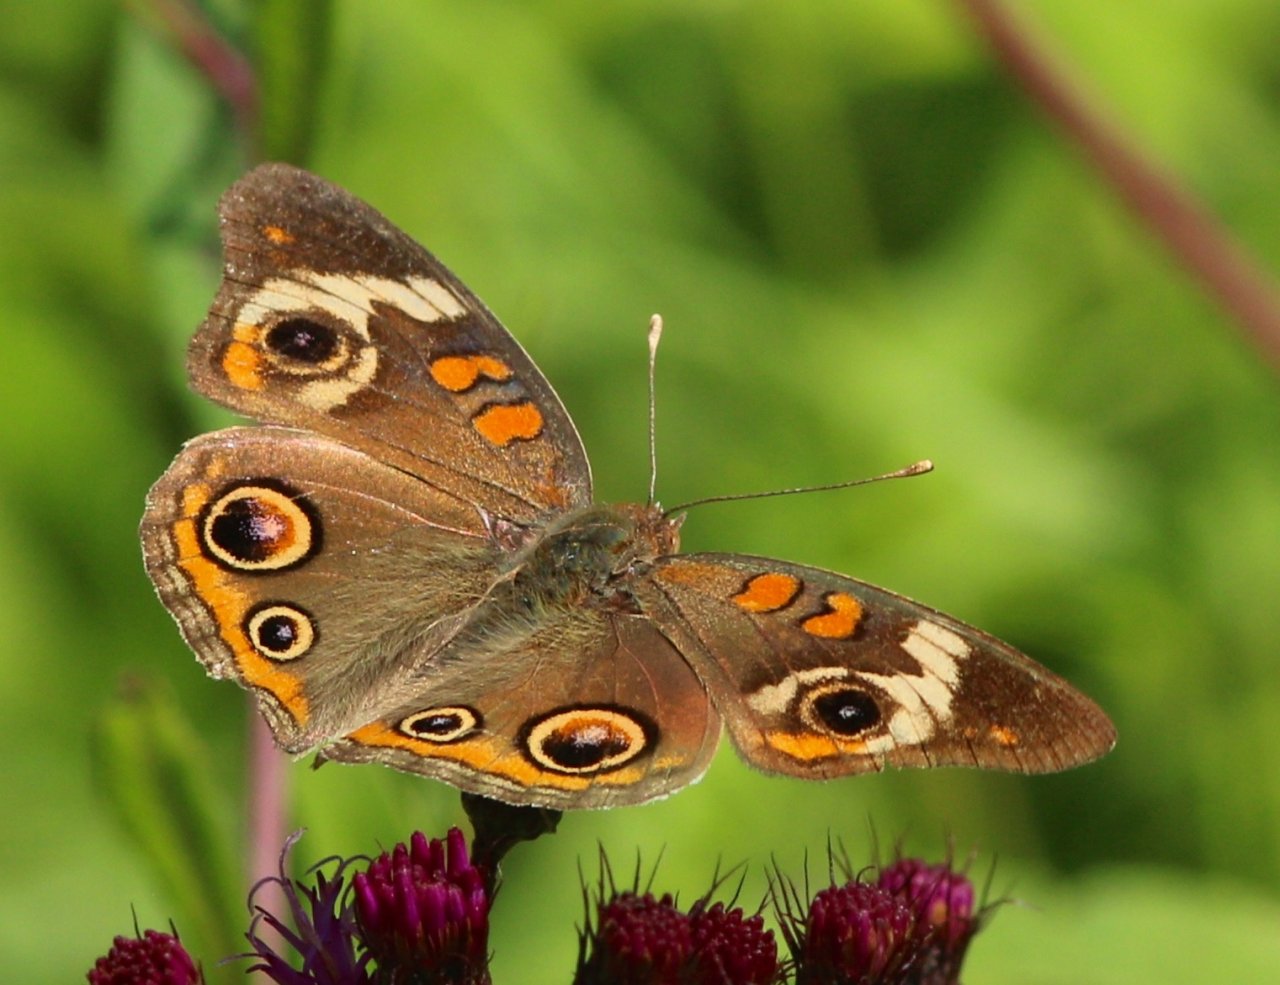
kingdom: Animalia
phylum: Arthropoda
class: Insecta
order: Lepidoptera
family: Nymphalidae
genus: Junonia
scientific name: Junonia coenia
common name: Common Buckeye
